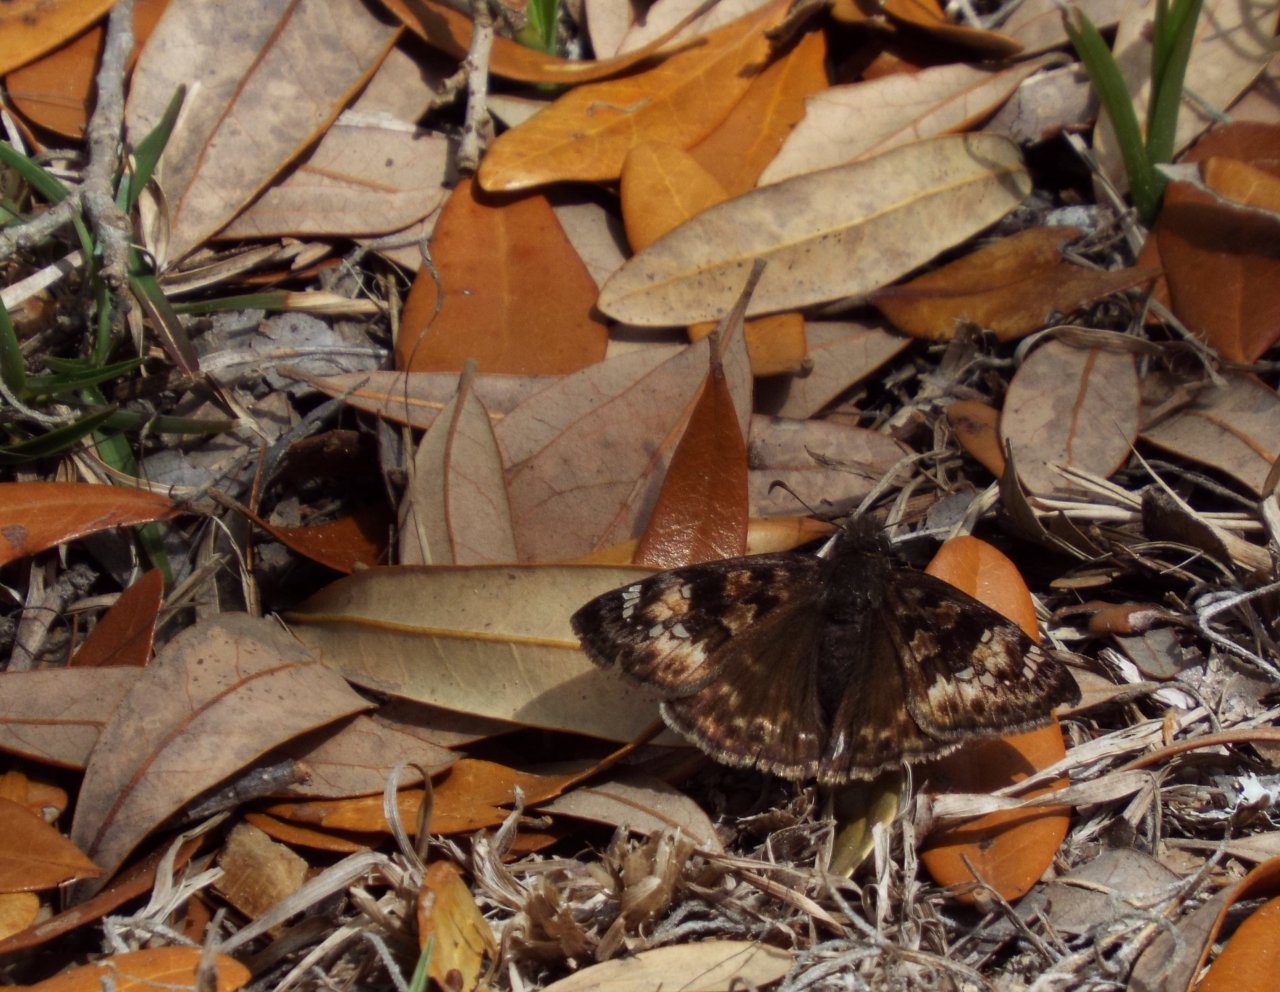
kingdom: Animalia
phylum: Arthropoda
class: Insecta
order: Lepidoptera
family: Hesperiidae
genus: Gesta
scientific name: Gesta
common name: Horace's Duskywing
